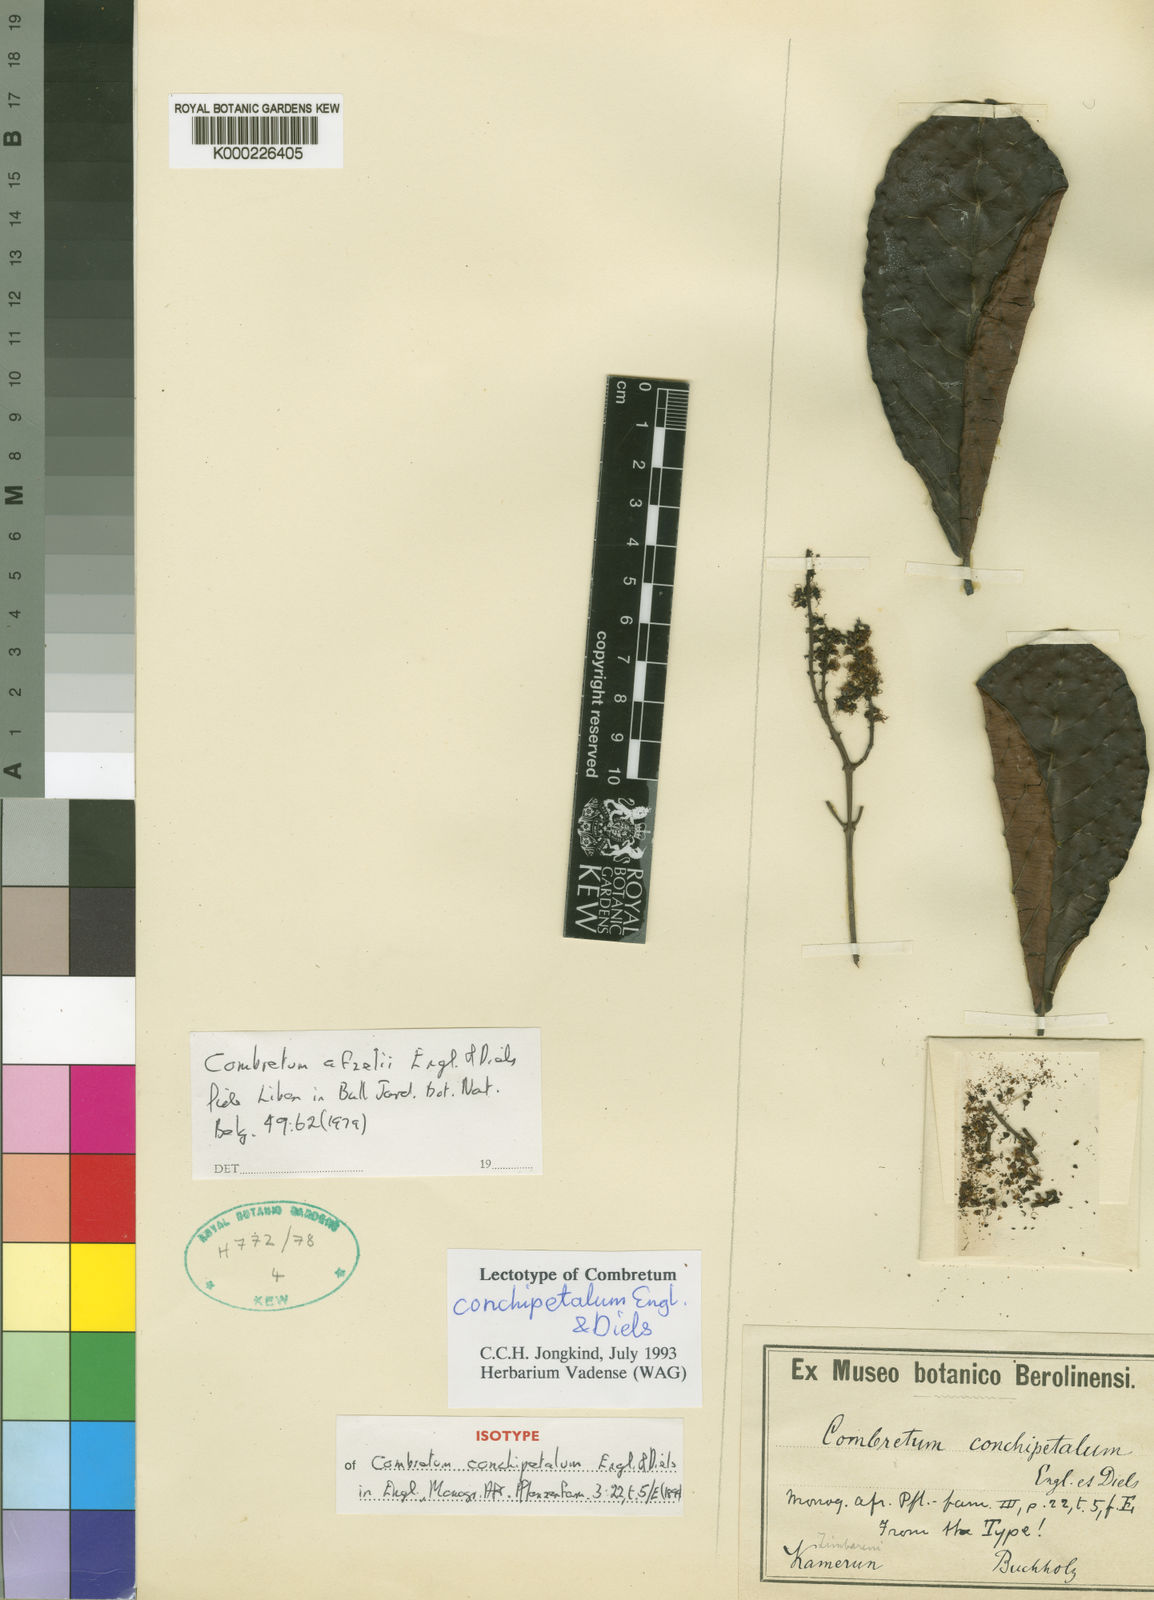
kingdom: Plantae
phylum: Tracheophyta
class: Magnoliopsida
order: Myrtales
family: Combretaceae
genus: Combretum
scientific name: Combretum conchipetalum
